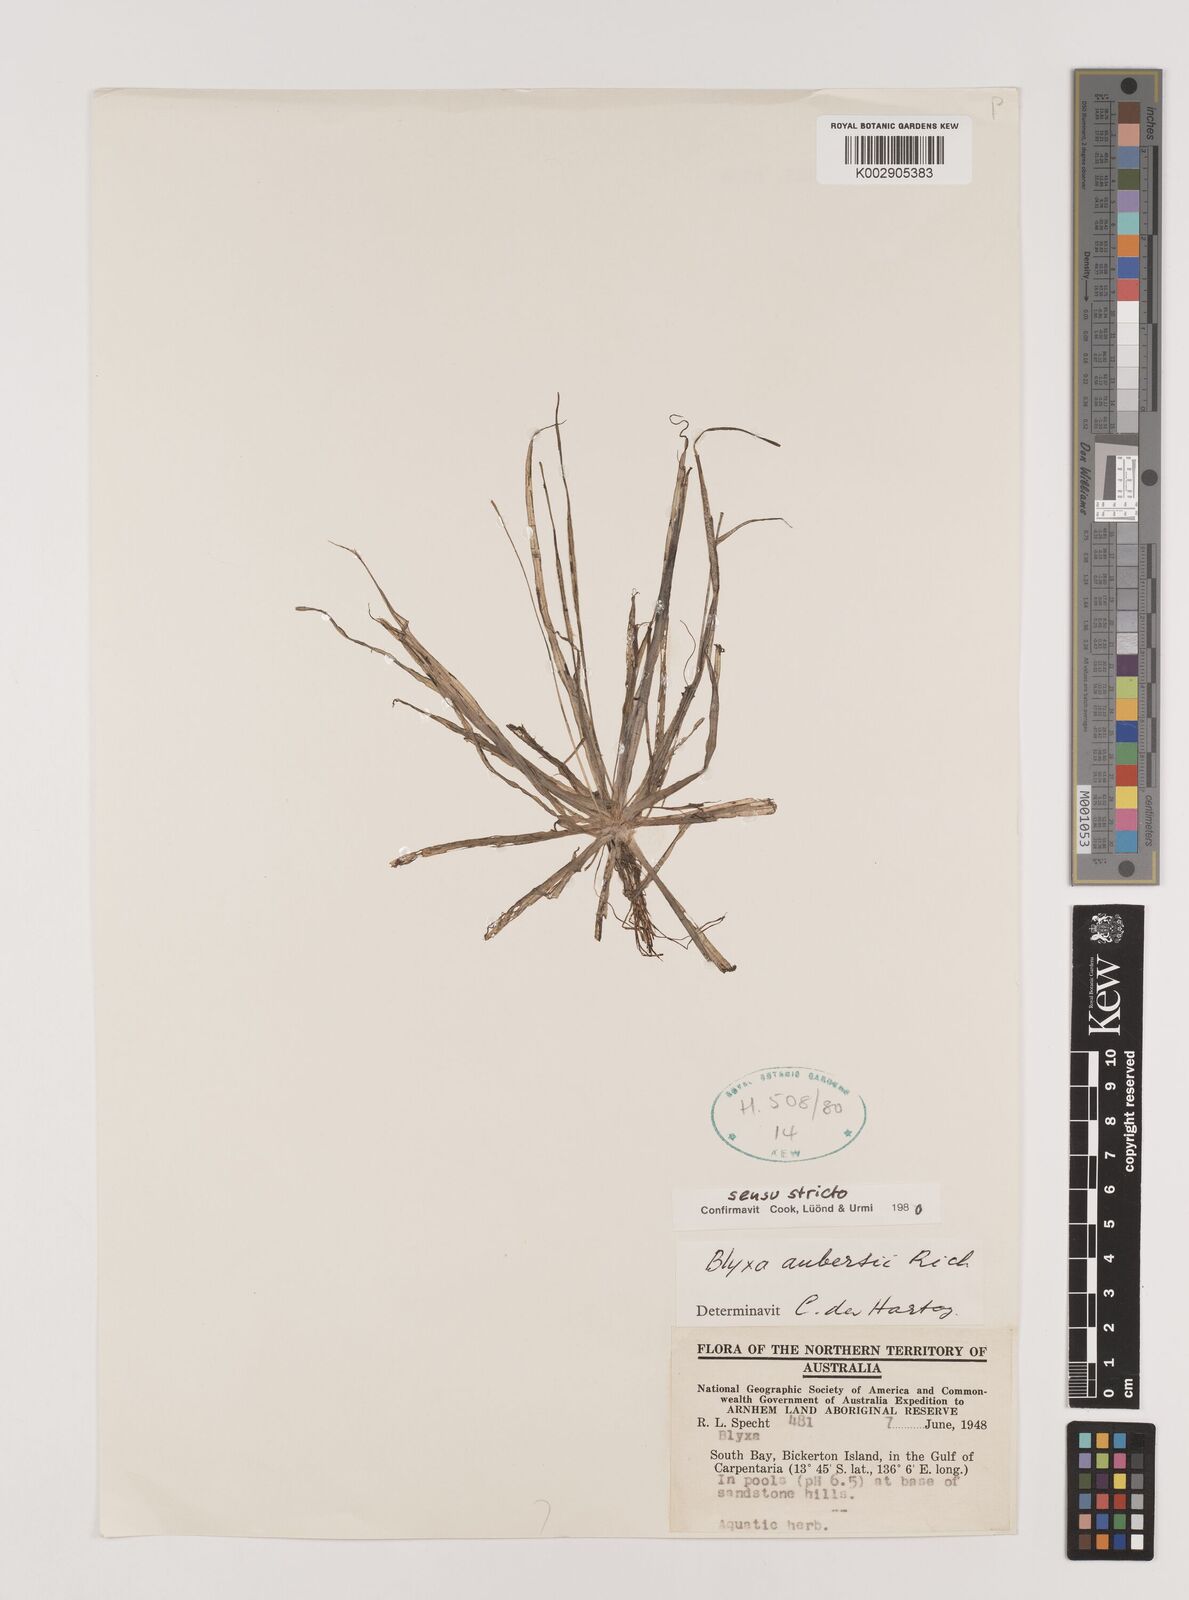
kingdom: Plantae
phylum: Tracheophyta
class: Liliopsida
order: Alismatales
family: Hydrocharitaceae
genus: Blyxa
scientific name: Blyxa aubertii
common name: Roundfruit blyxa
